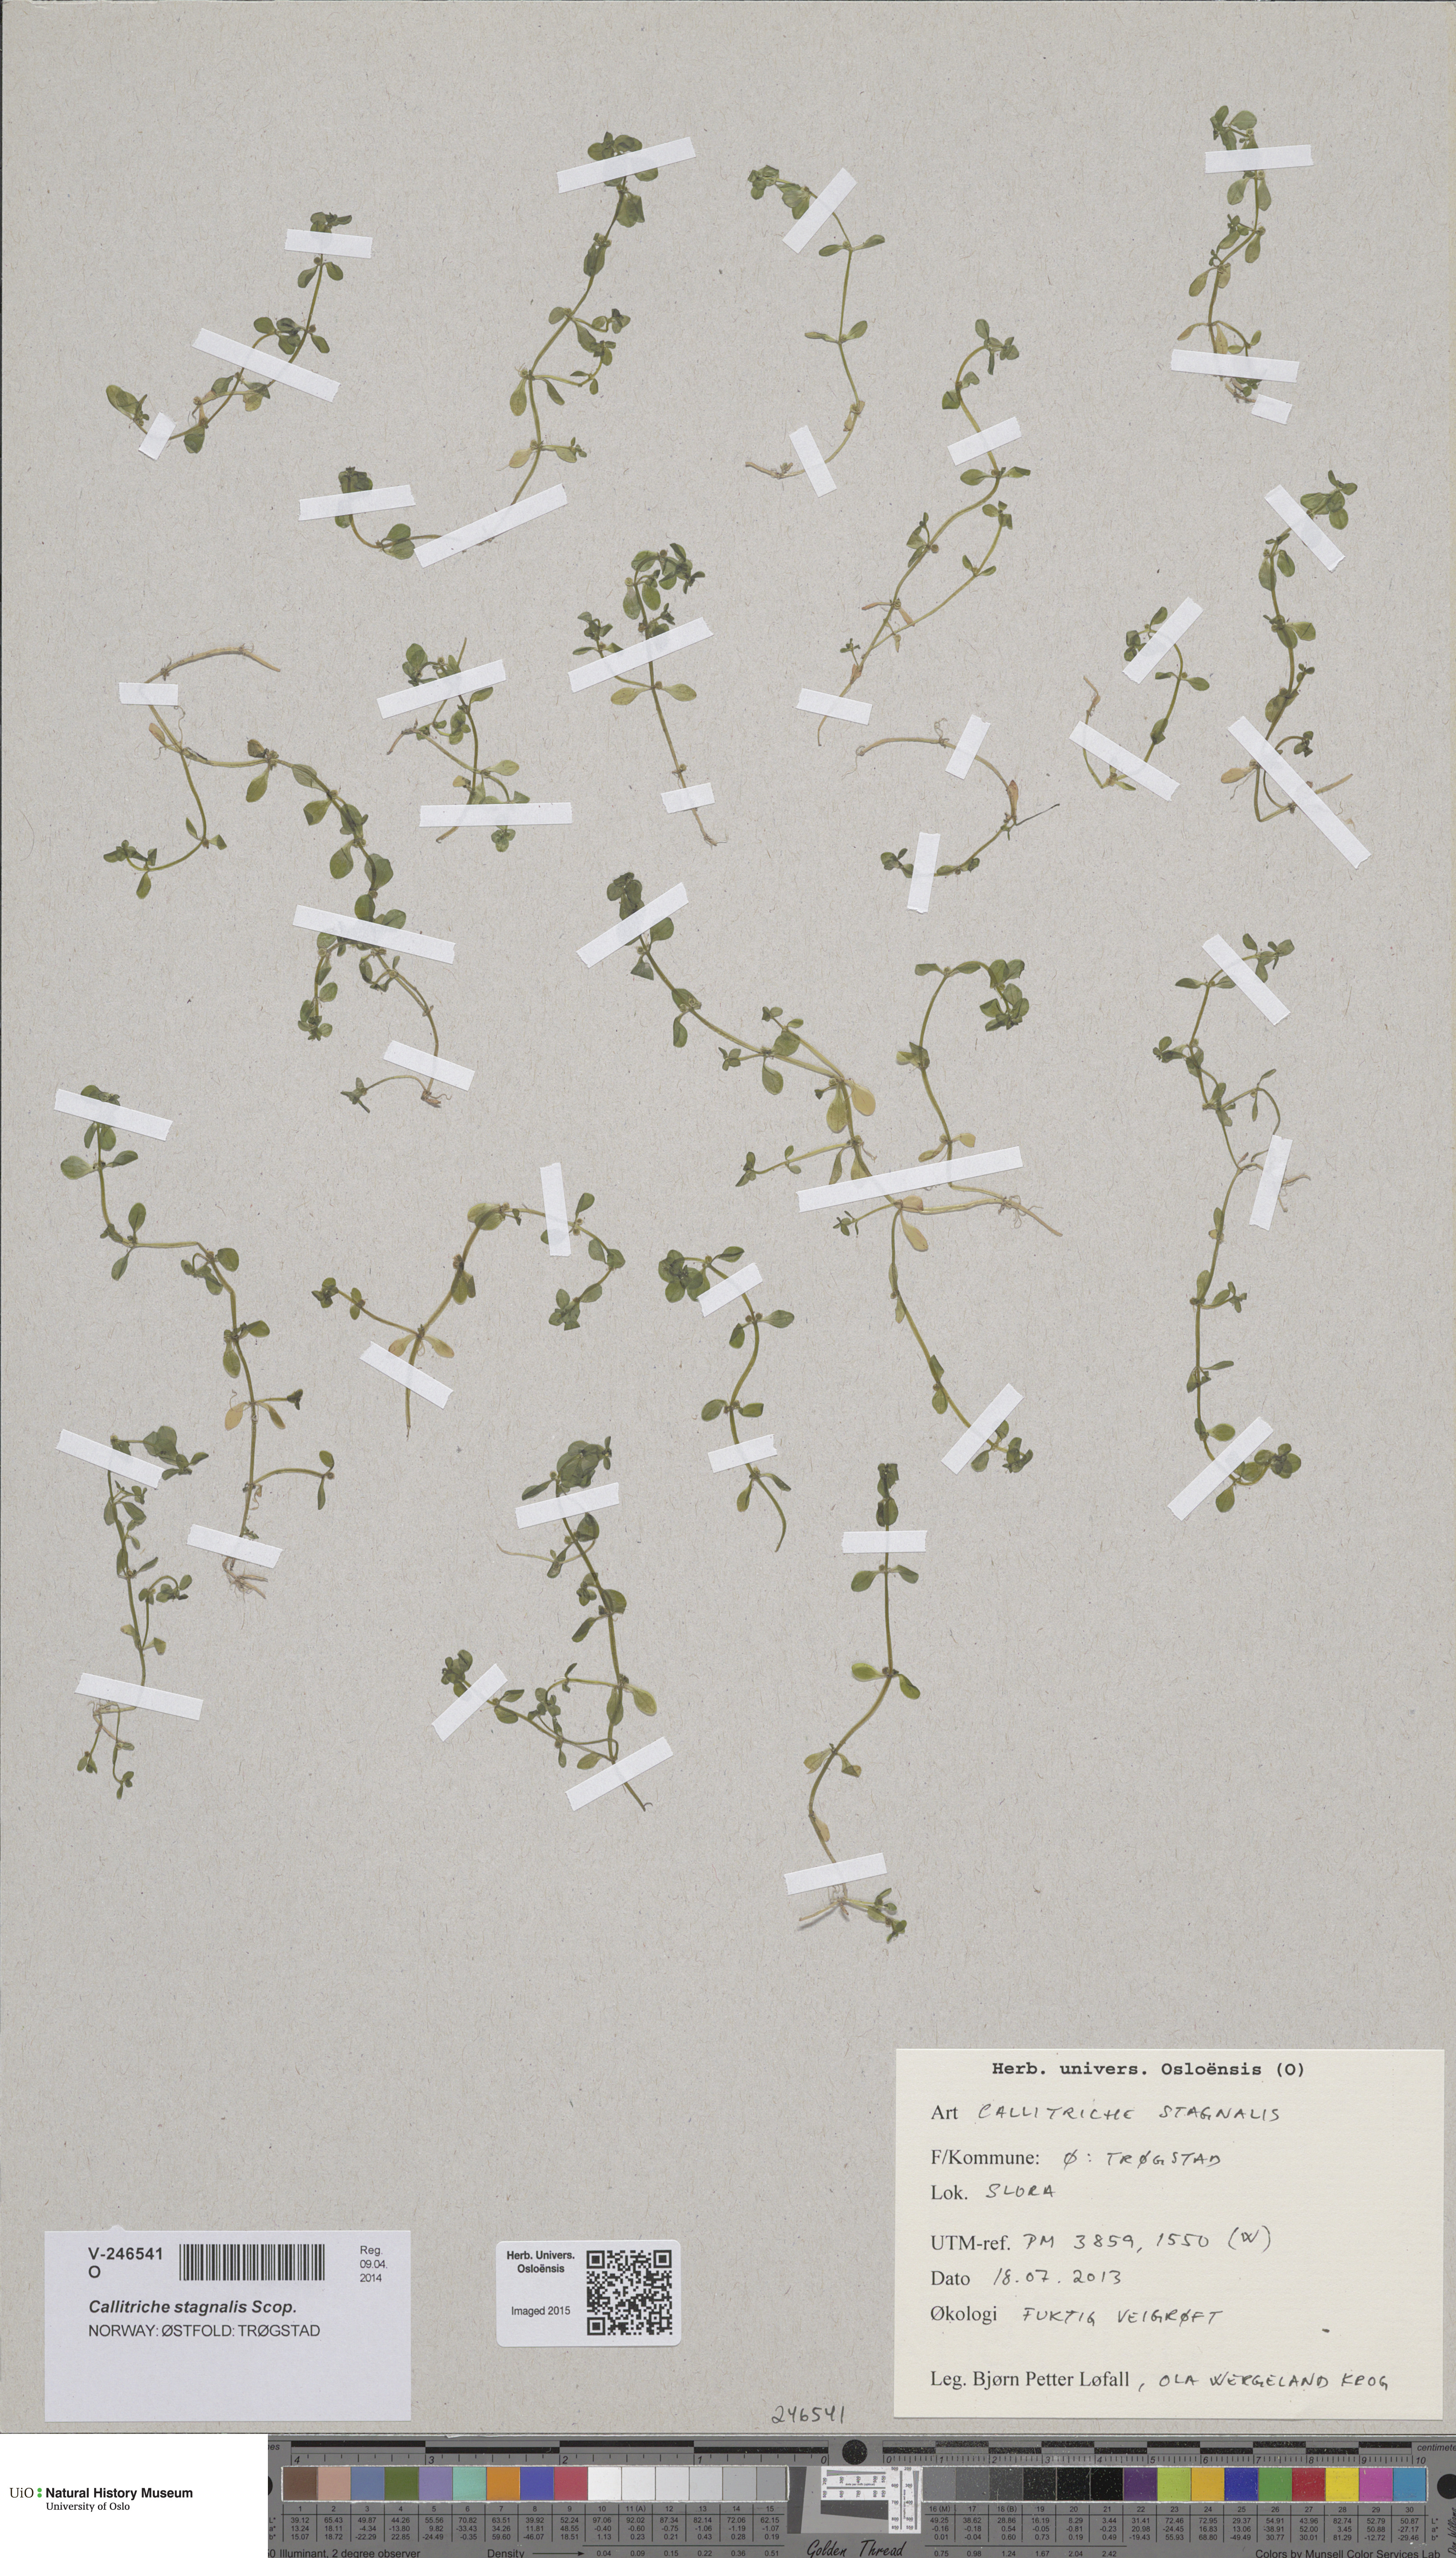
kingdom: Plantae
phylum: Tracheophyta
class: Magnoliopsida
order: Lamiales
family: Plantaginaceae
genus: Callitriche
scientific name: Callitriche stagnalis
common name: Common water-starwort
